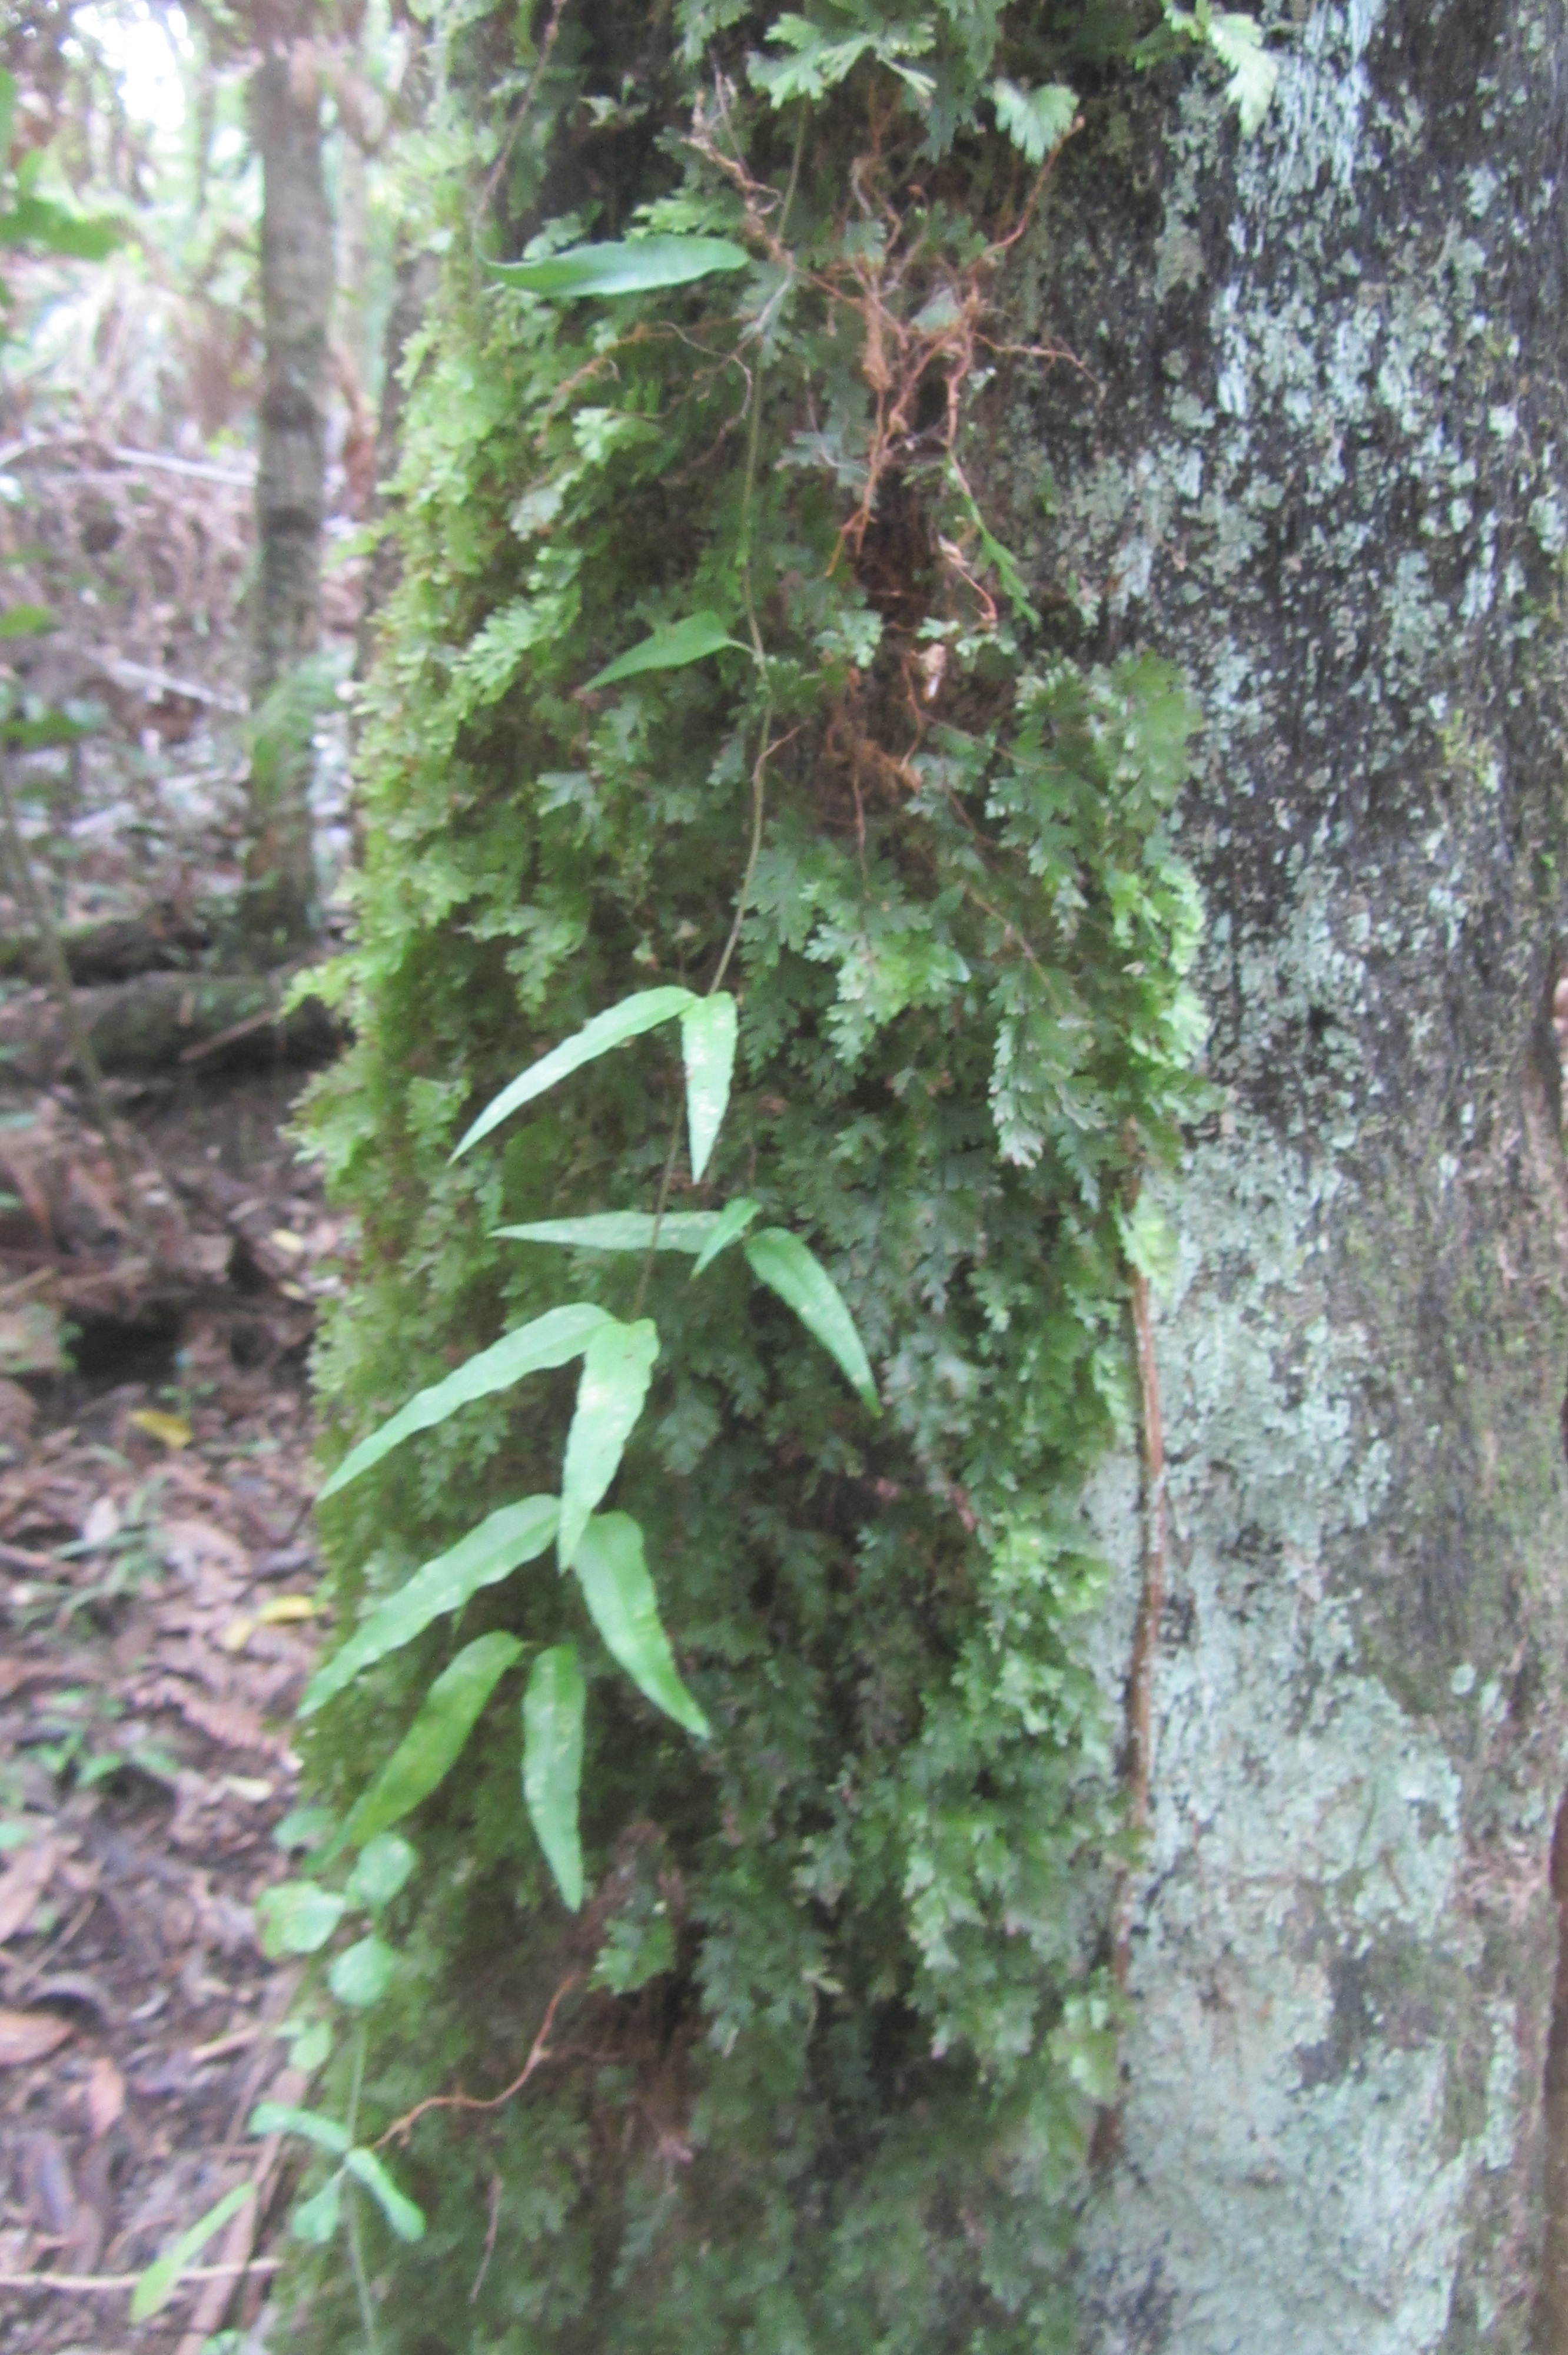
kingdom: Plantae
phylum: Tracheophyta
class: Polypodiopsida
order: Hymenophyllales
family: Hymenophyllaceae
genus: Hymenophyllum
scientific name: Hymenophyllum flabellatum
